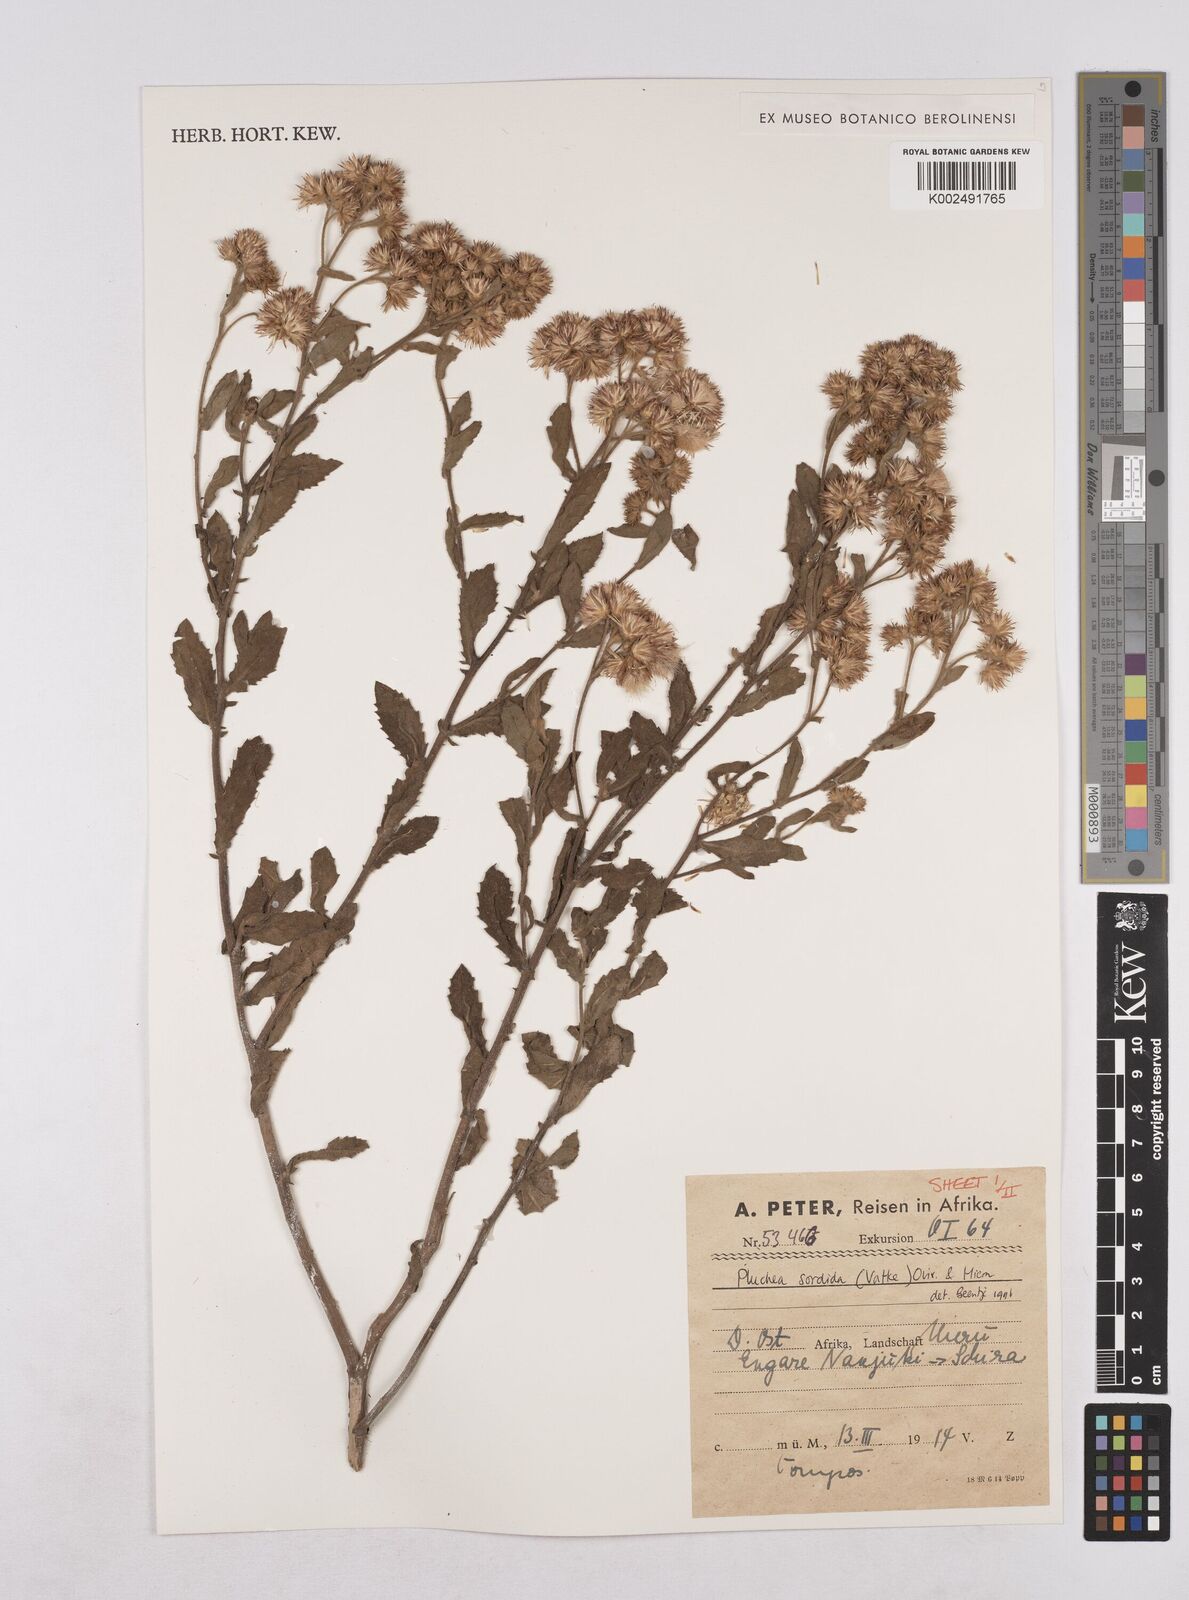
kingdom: Plantae
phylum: Tracheophyta
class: Magnoliopsida
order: Asterales
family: Asteraceae
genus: Pluchea
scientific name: Pluchea sordida
